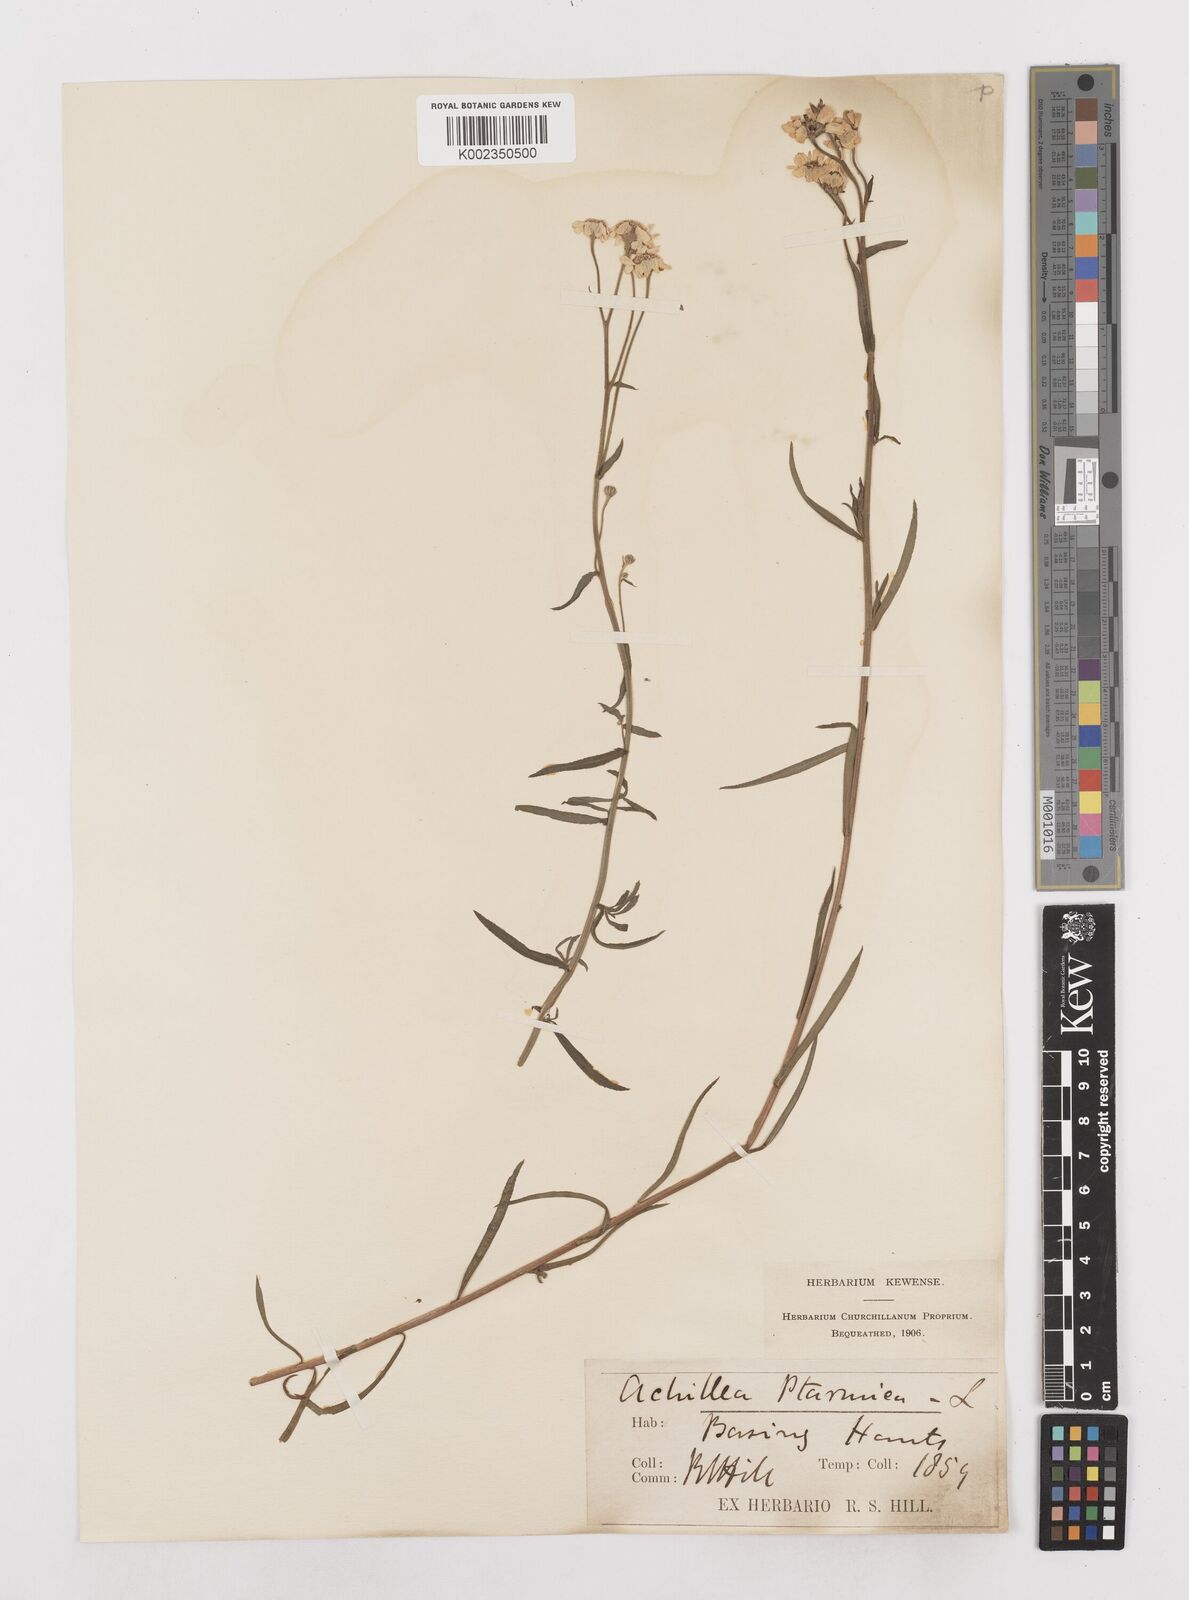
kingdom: Plantae
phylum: Tracheophyta
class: Magnoliopsida
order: Asterales
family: Asteraceae
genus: Achillea
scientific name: Achillea ptarmica
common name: Sneezeweed
